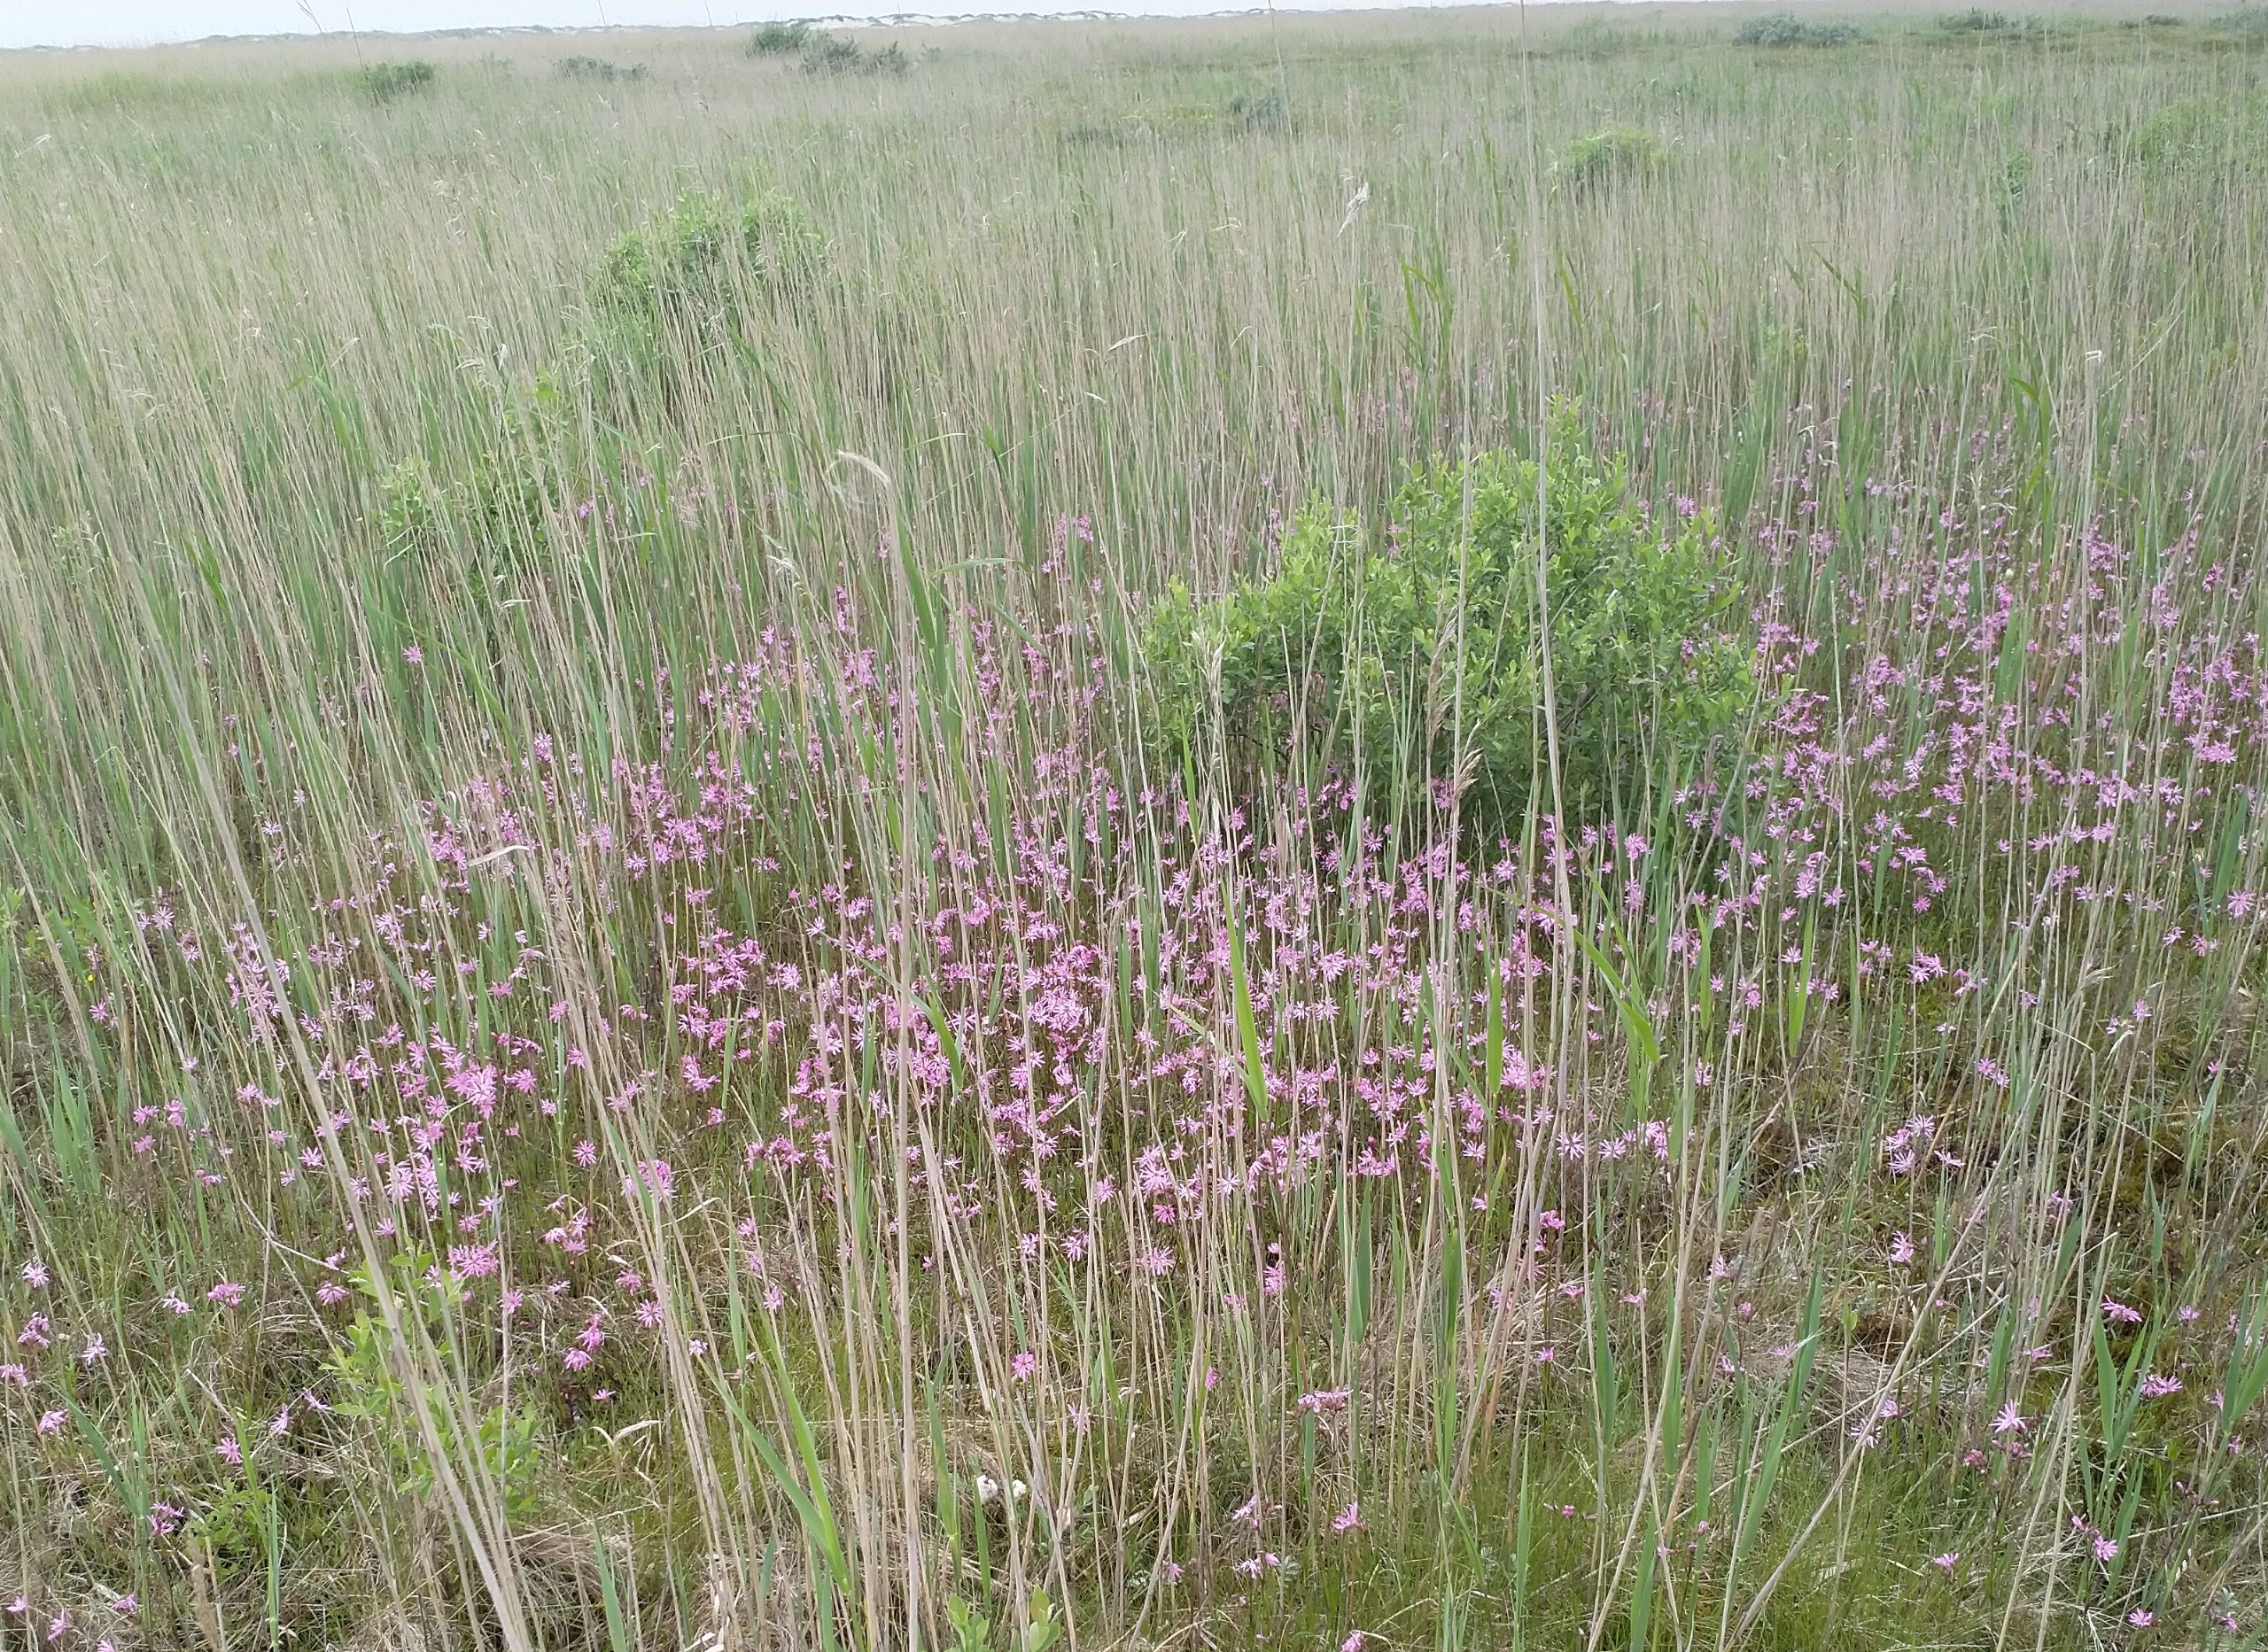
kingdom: Plantae
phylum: Tracheophyta
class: Magnoliopsida
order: Caryophyllales
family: Caryophyllaceae
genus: Silene
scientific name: Silene flos-cuculi
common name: Trævlekrone
